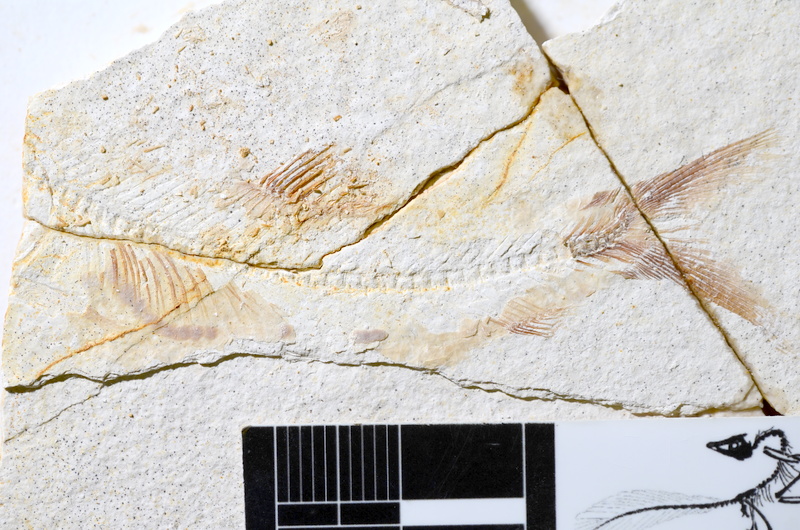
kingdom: Animalia
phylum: Chordata
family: Ascalaboidae
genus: Ebertichthys
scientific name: Ebertichthys ettlingensis
